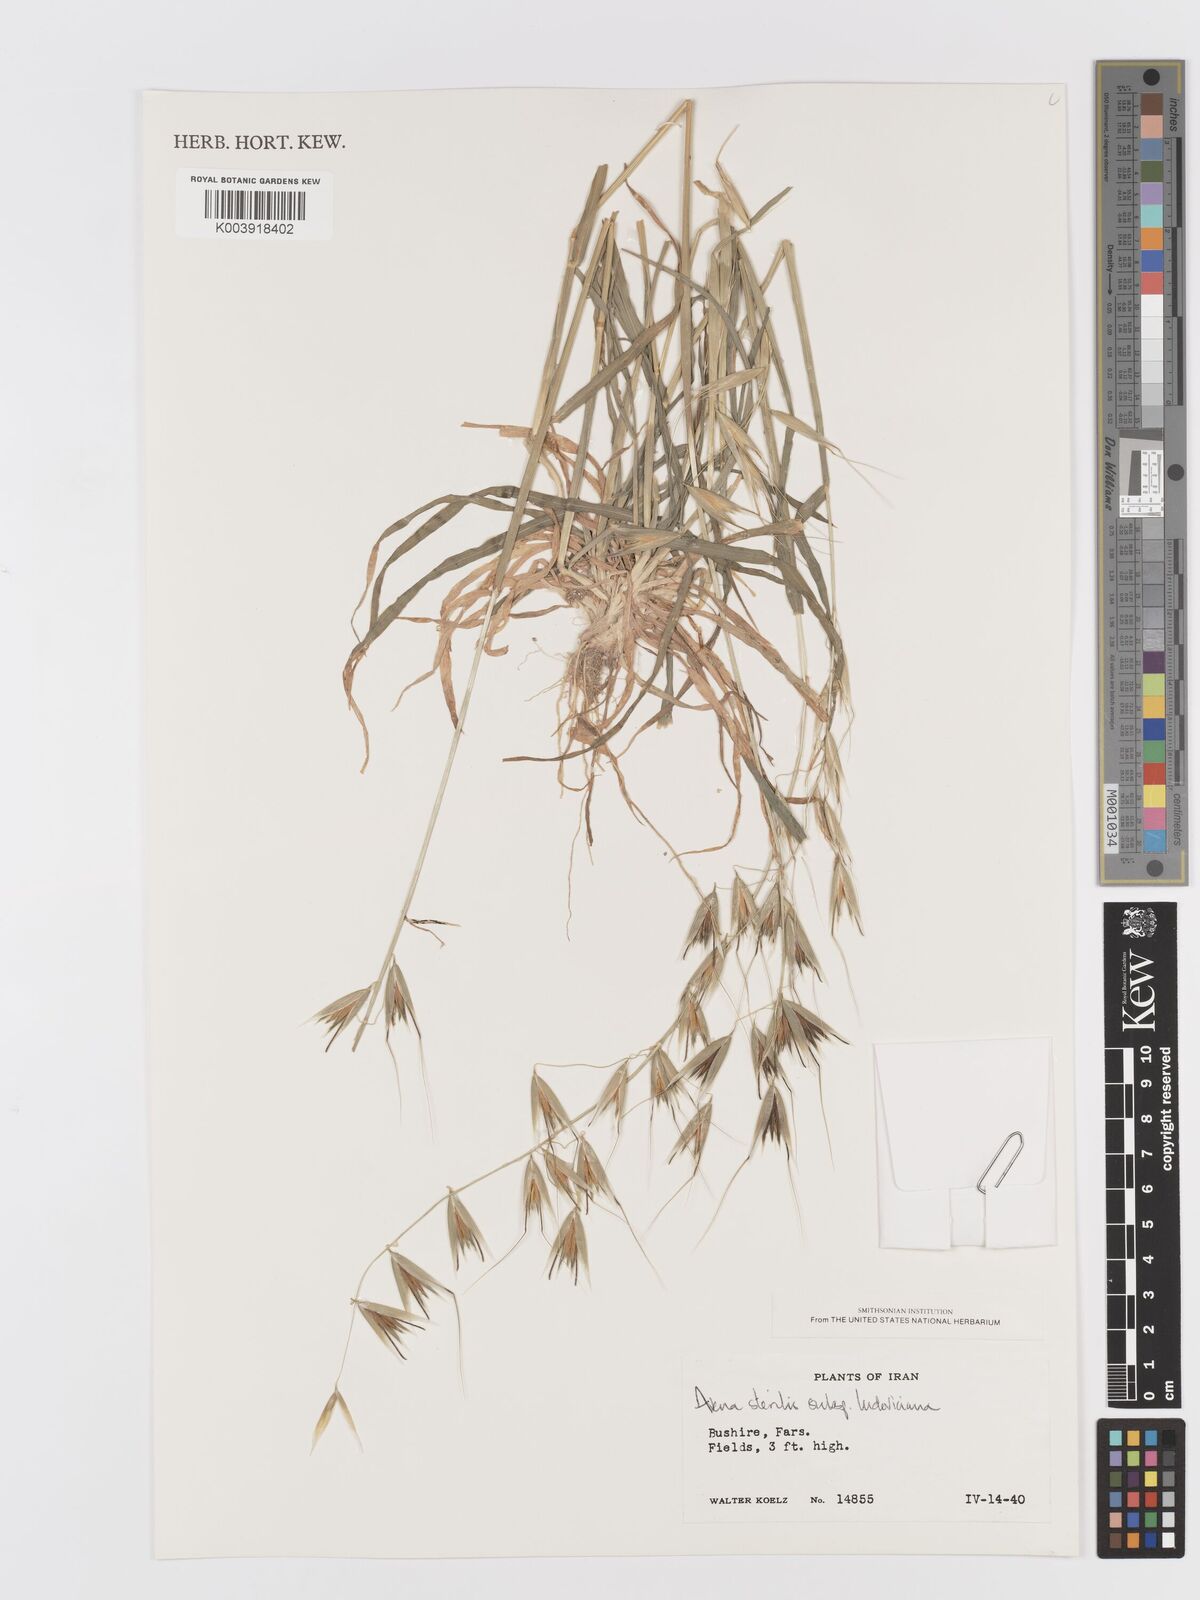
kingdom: Plantae
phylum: Tracheophyta
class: Liliopsida
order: Poales
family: Poaceae
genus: Avena
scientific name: Avena sterilis
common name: Animated oat
